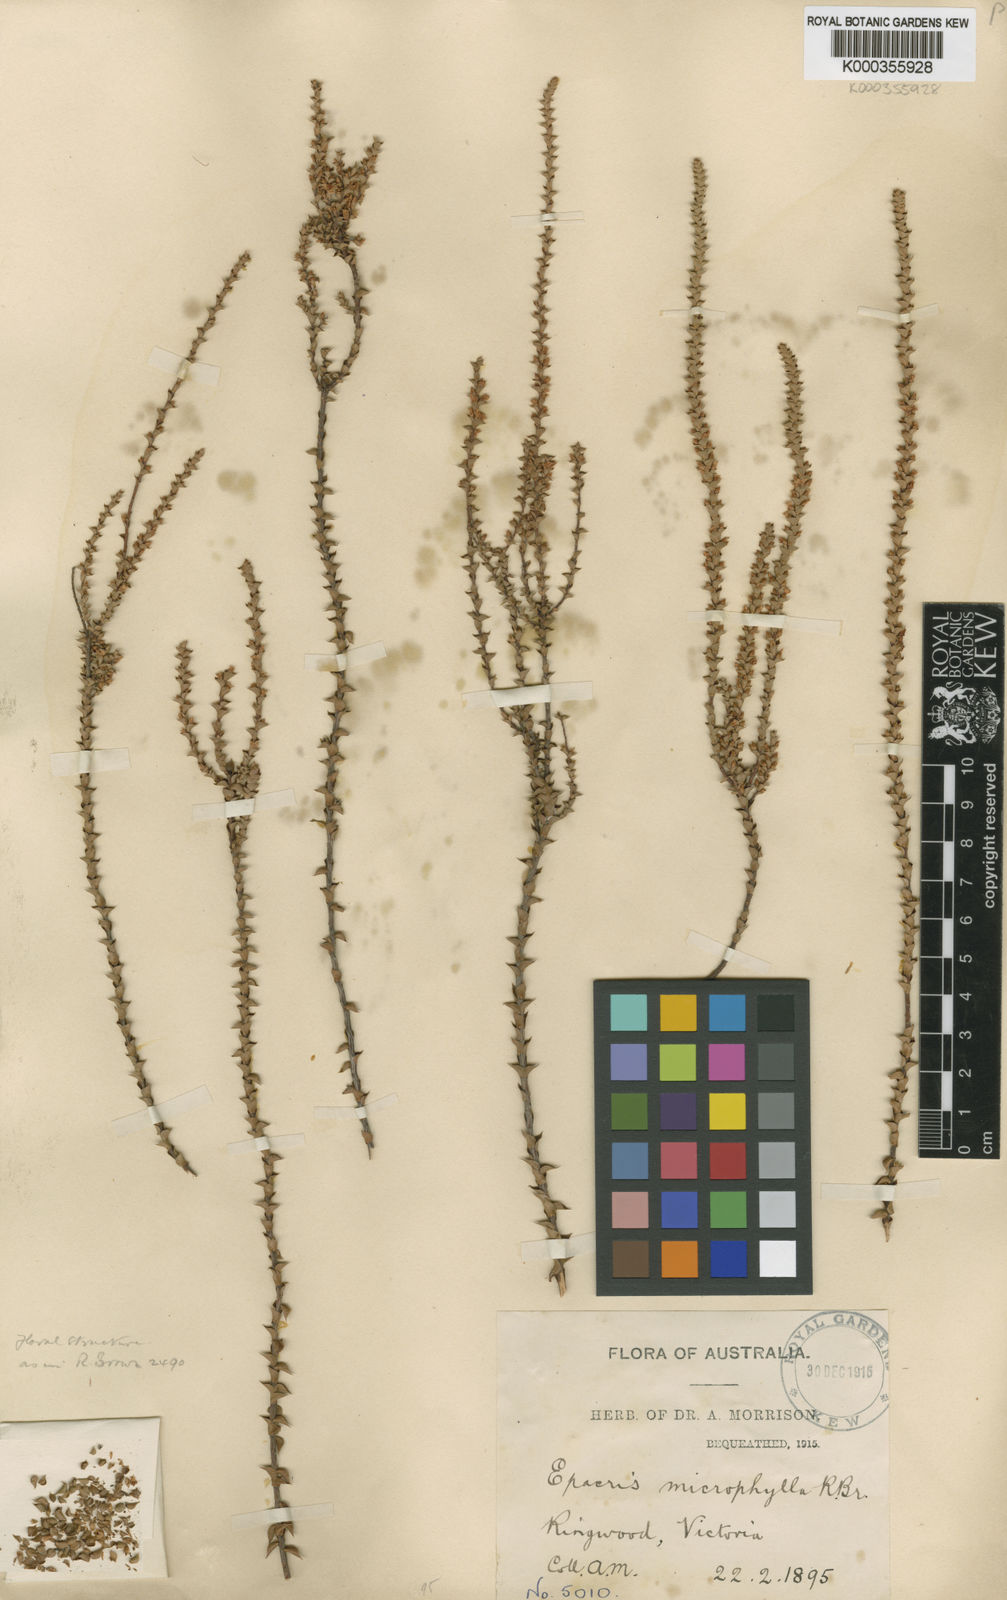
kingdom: Plantae
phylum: Tracheophyta
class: Magnoliopsida
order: Ericales
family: Ericaceae
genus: Epacris
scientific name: Epacris
